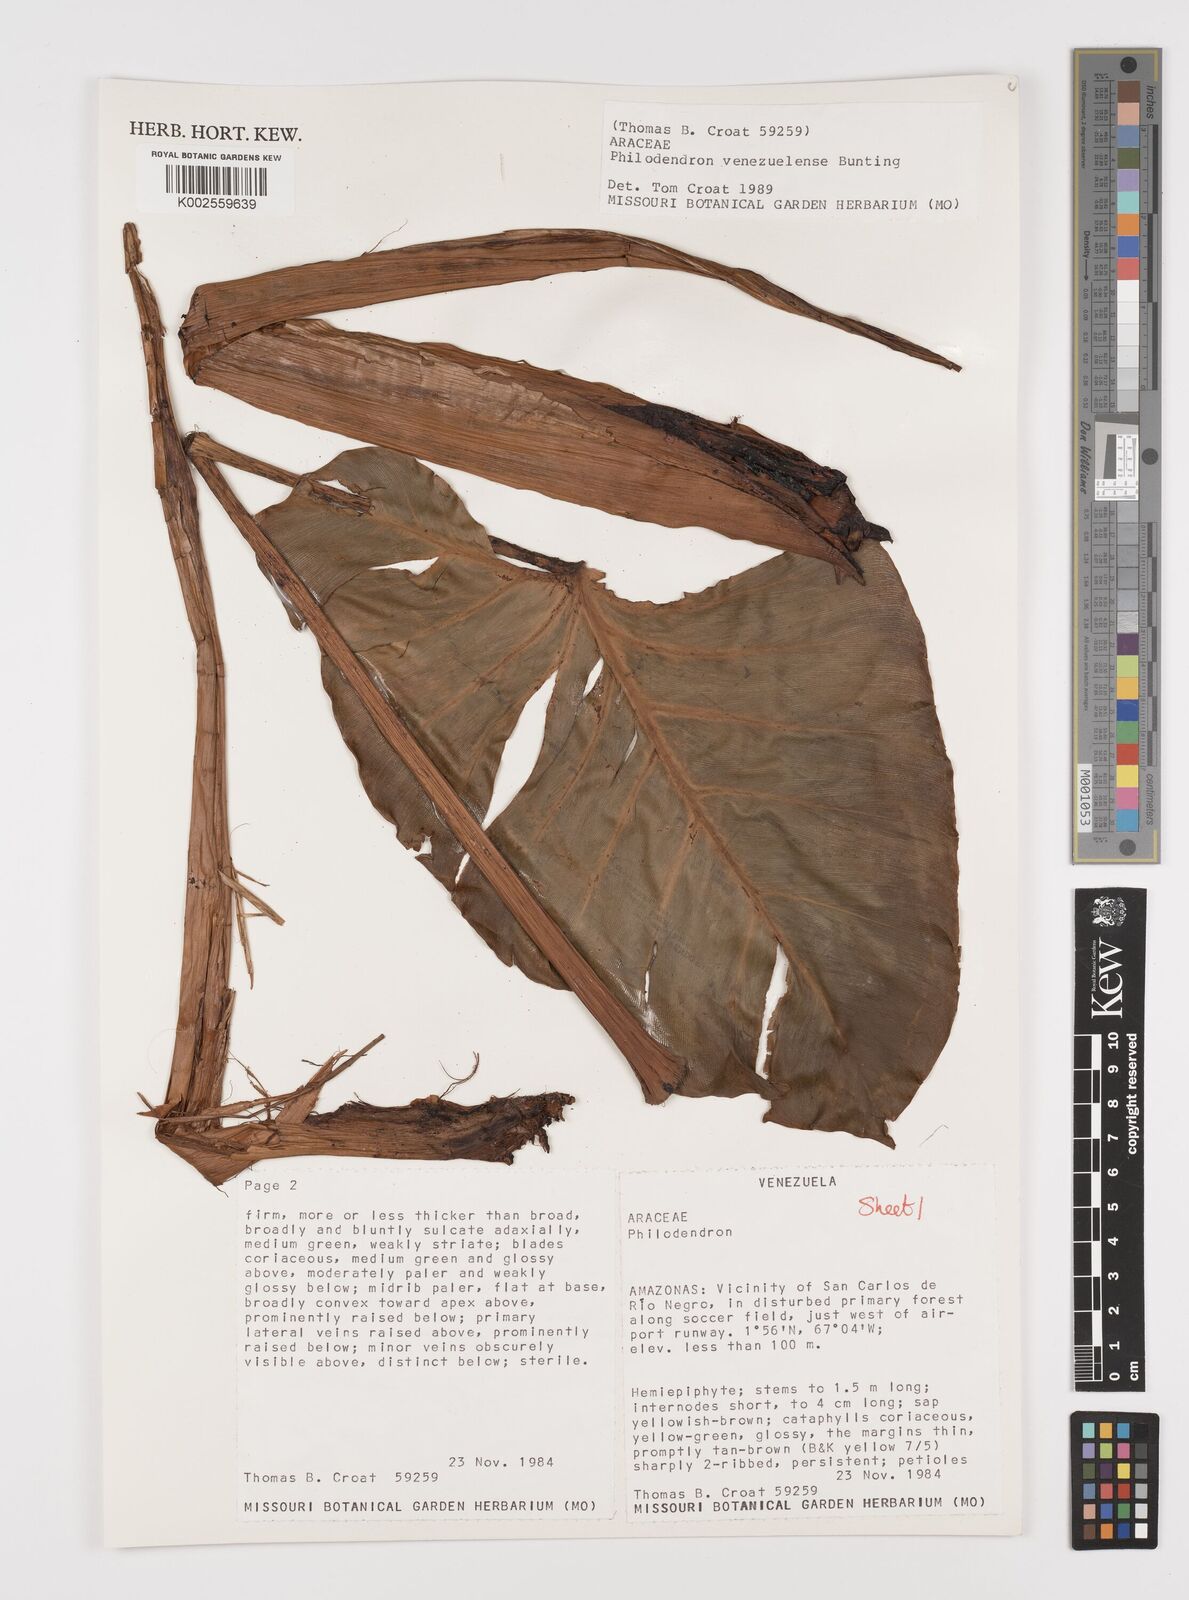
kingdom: Plantae
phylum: Tracheophyta
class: Liliopsida
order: Alismatales
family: Araceae
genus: Thaumatophyllum
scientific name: Thaumatophyllum venezuelense
